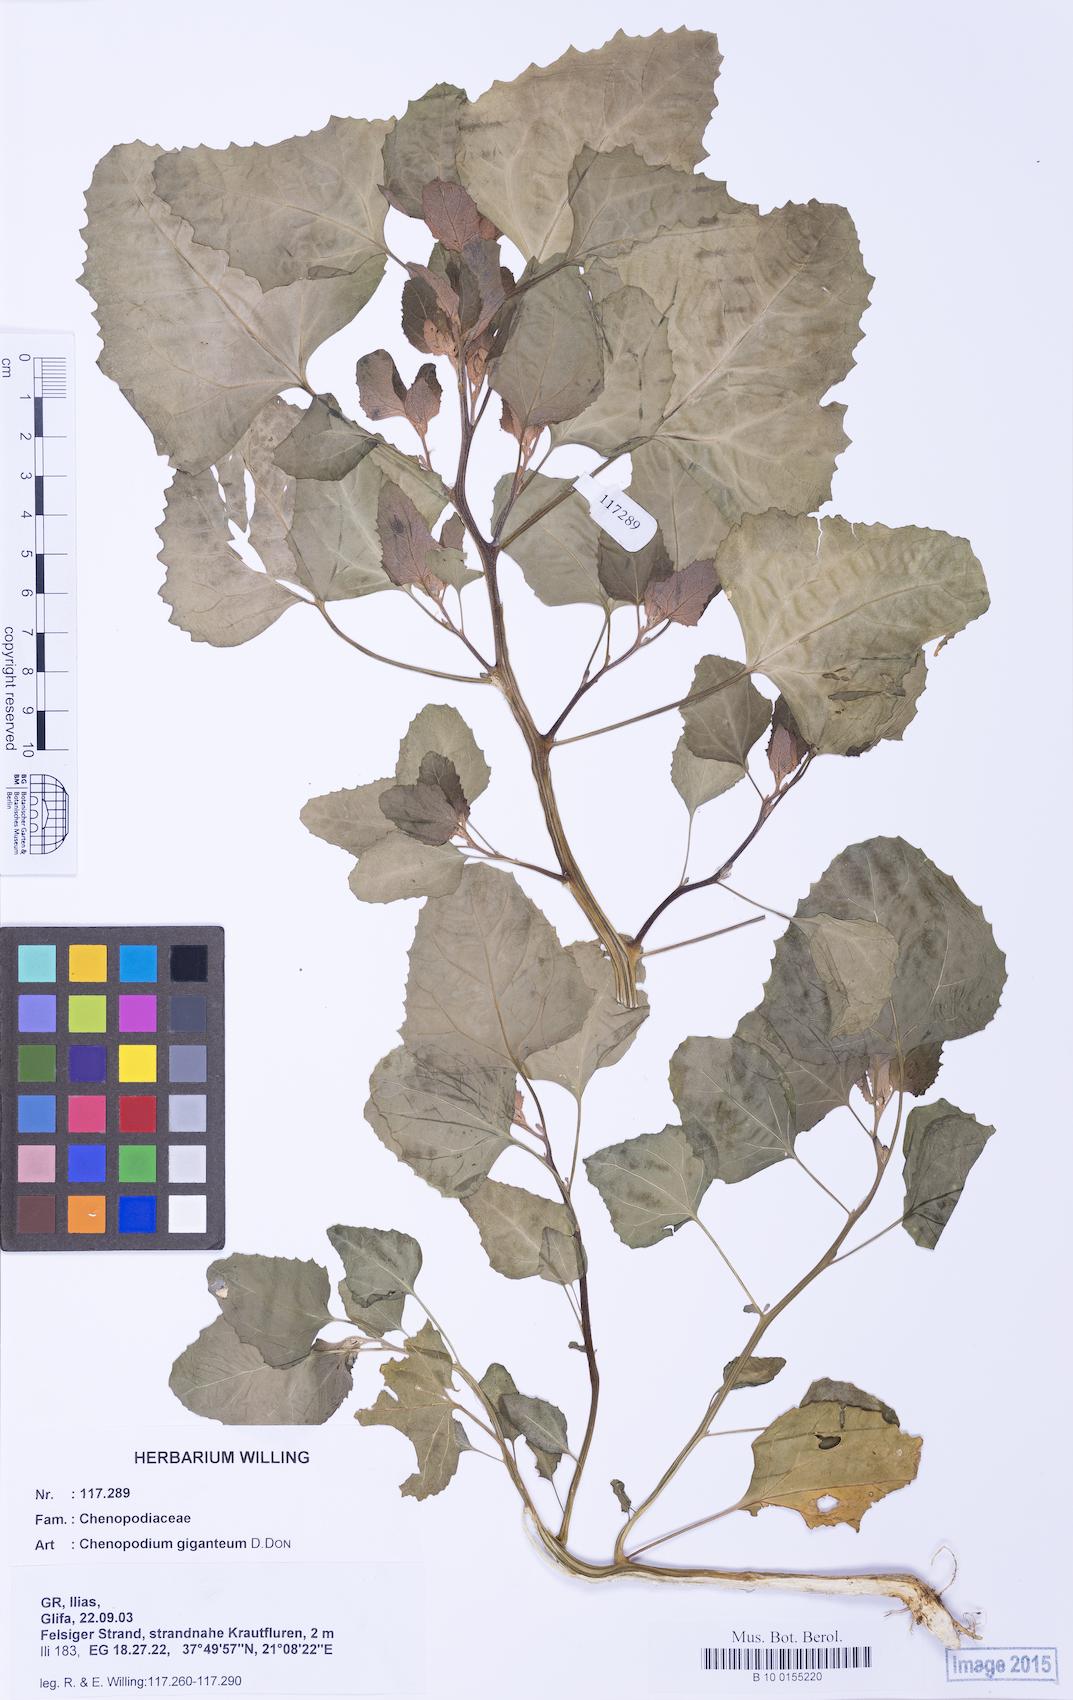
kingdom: Plantae
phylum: Tracheophyta
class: Magnoliopsida
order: Caryophyllales
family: Amaranthaceae
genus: Chenopodium
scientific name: Chenopodium giganteum
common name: Magentaspreen
